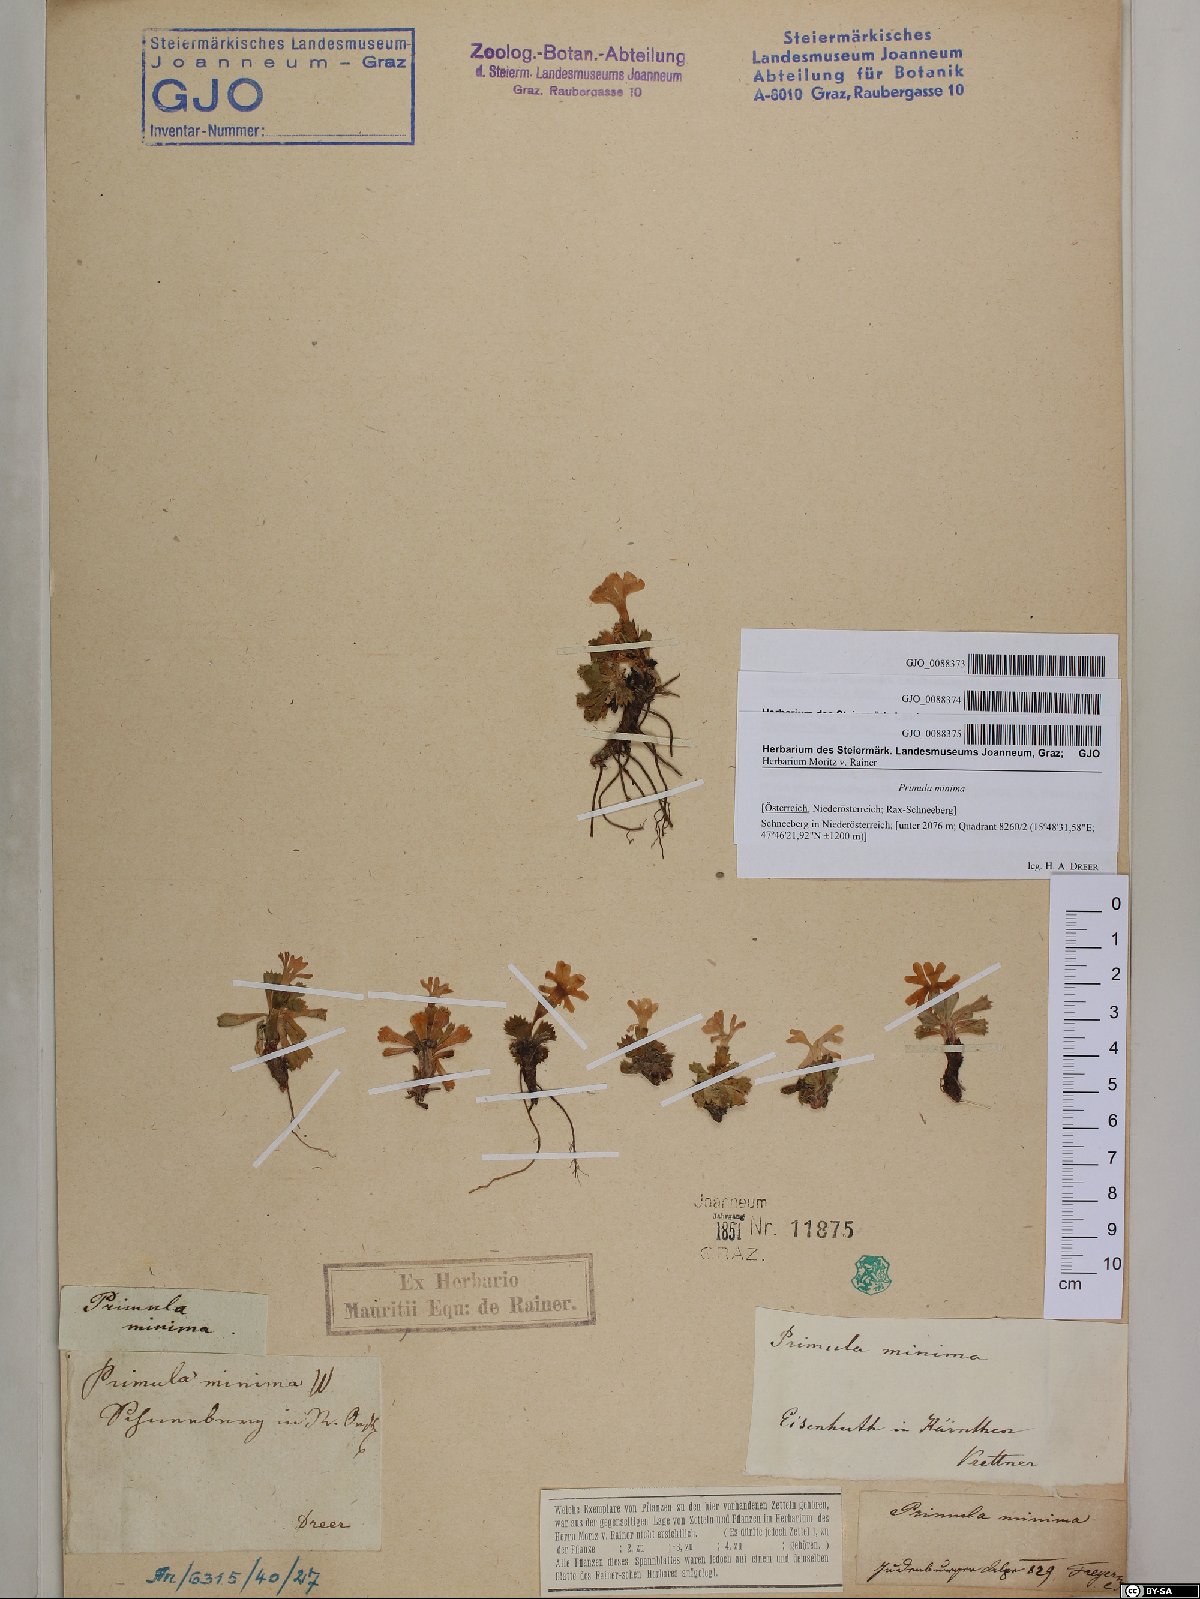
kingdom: Plantae
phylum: Tracheophyta
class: Magnoliopsida
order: Ericales
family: Primulaceae
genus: Primula
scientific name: Primula minima
